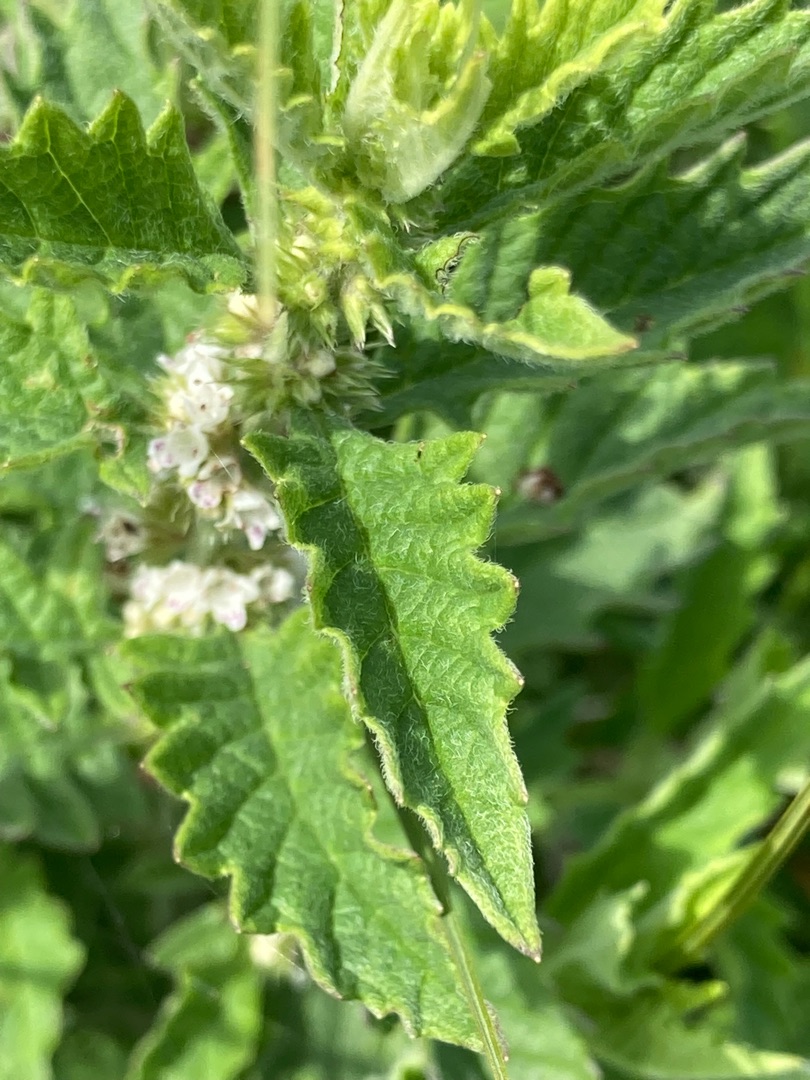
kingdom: Plantae
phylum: Tracheophyta
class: Magnoliopsida
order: Lamiales
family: Lamiaceae
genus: Lycopus
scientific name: Lycopus europaeus
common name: Sværtevæld
